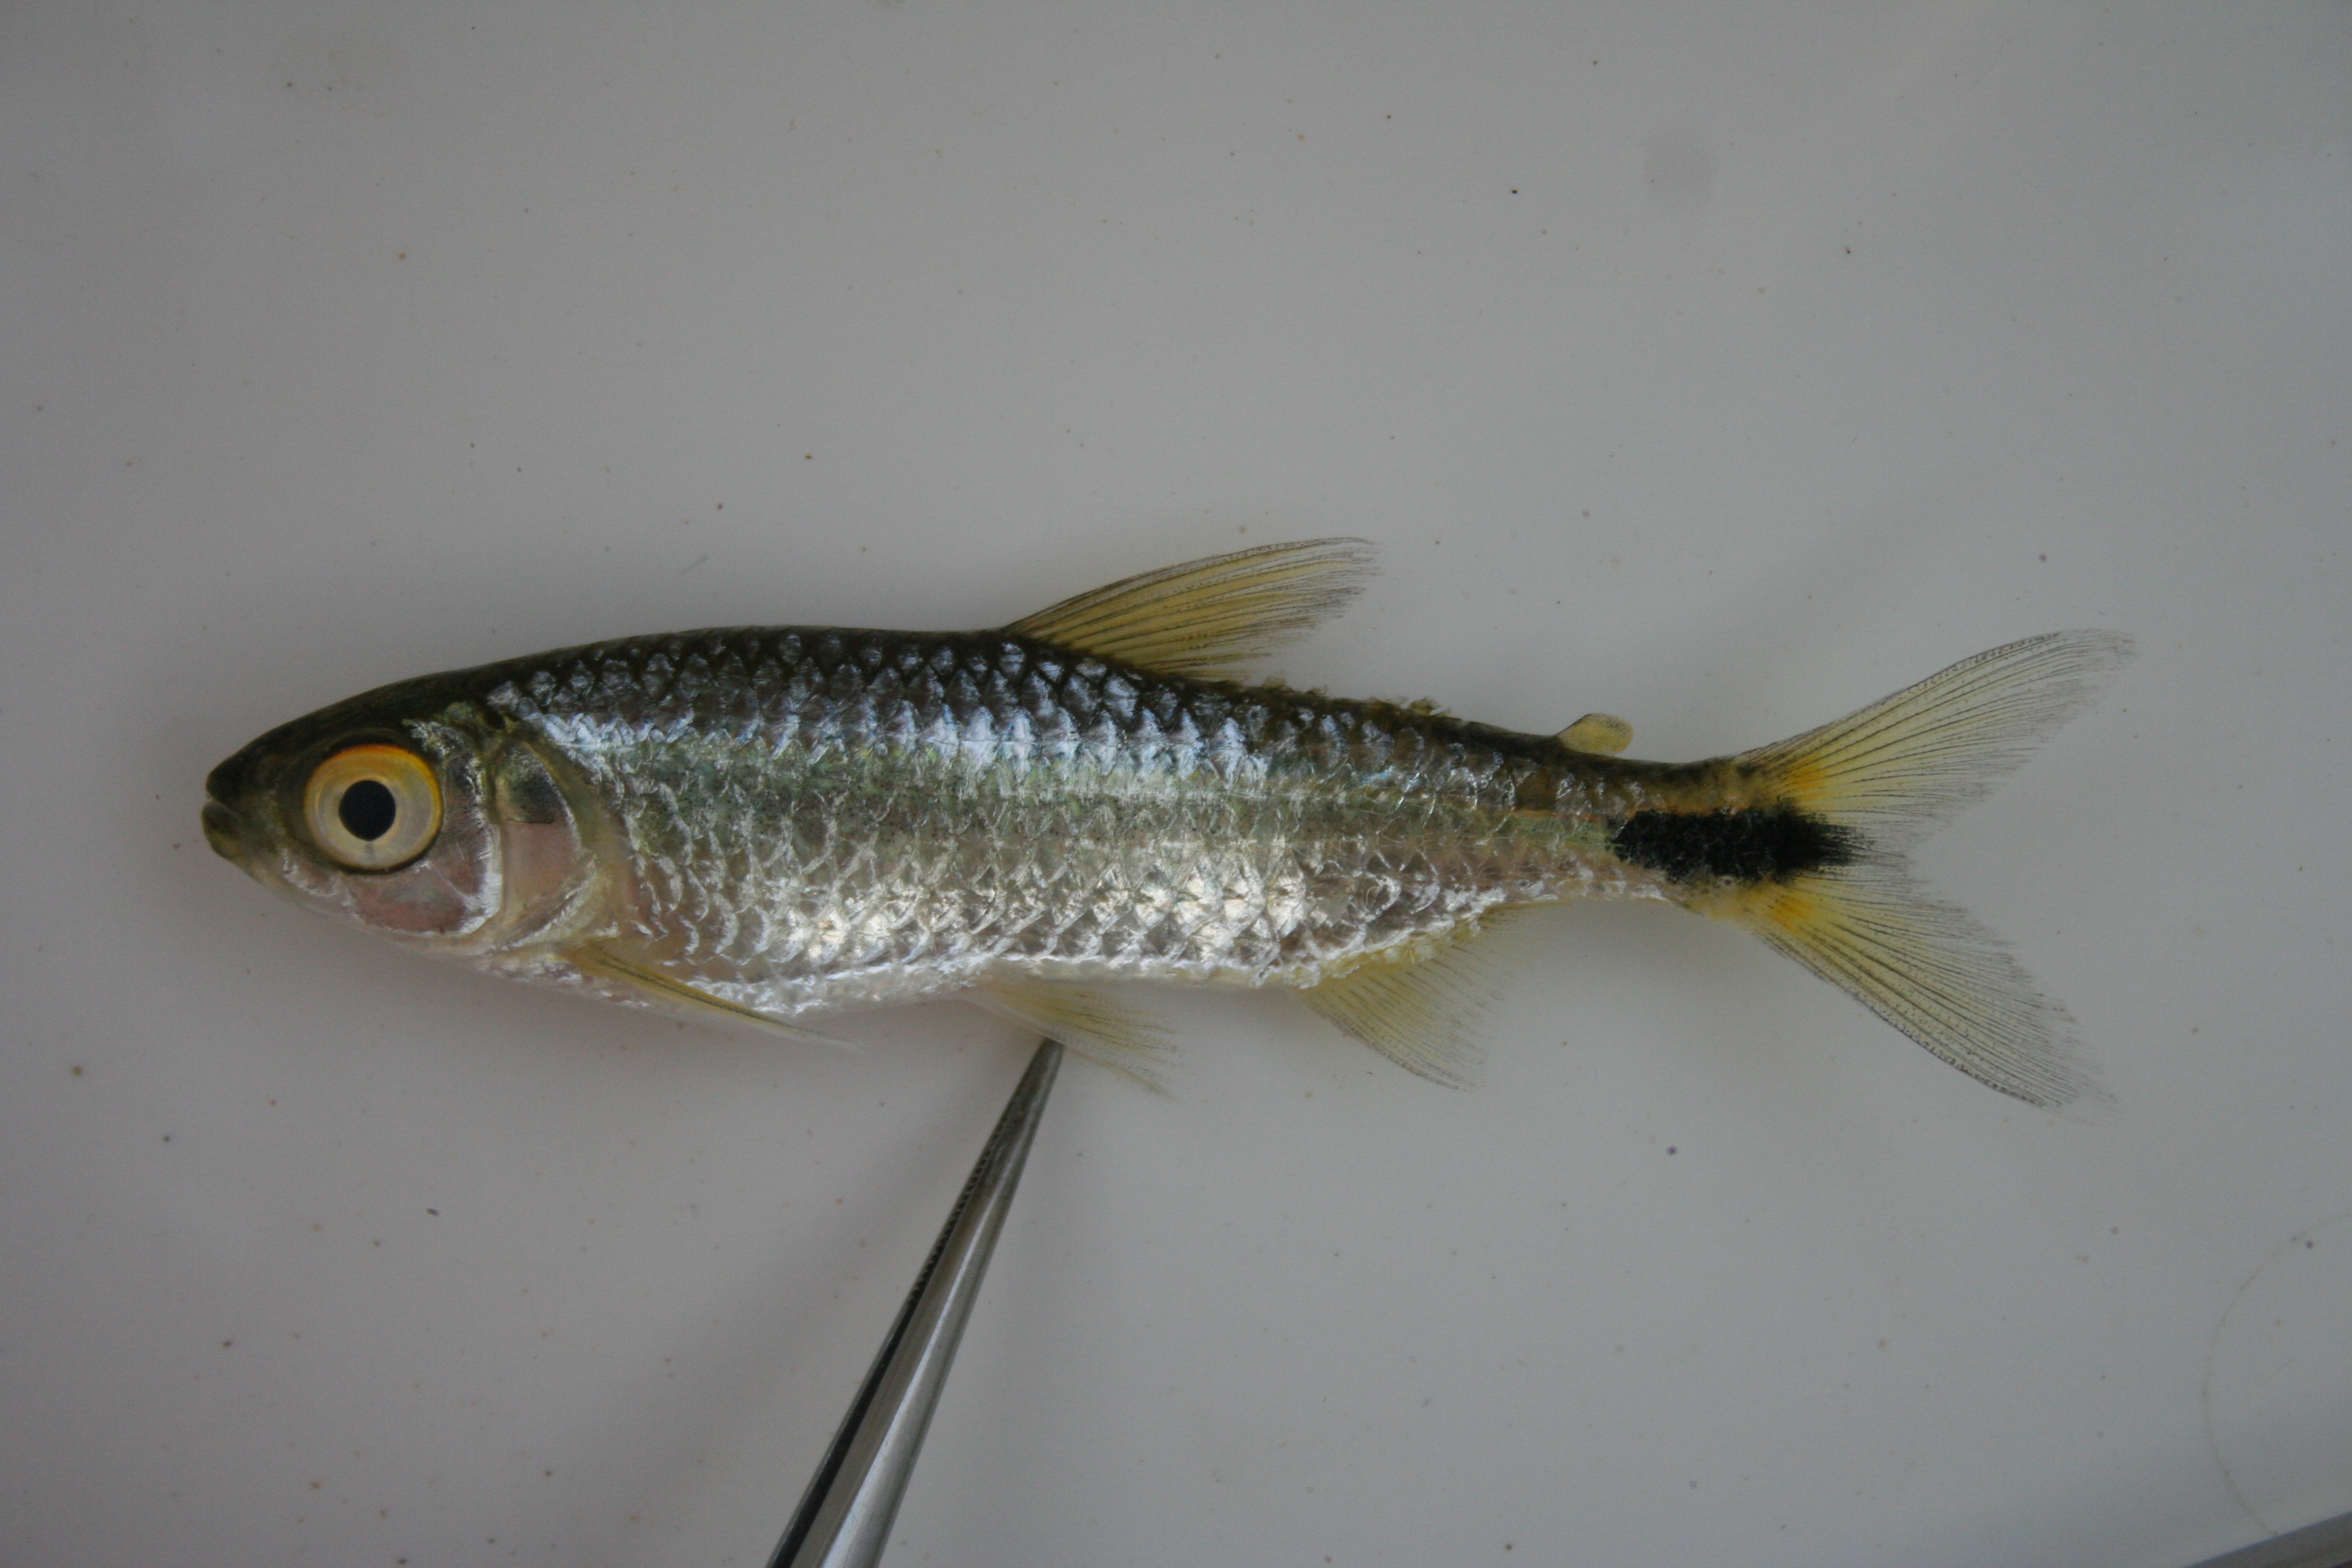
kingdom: Animalia
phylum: Chordata
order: Characiformes
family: Alestidae
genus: Brycinus
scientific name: Brycinus lateralis
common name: Striped robber
